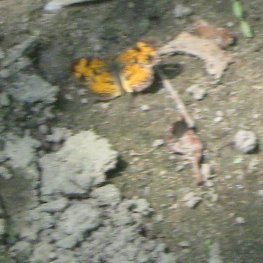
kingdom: Animalia
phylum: Arthropoda
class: Insecta
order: Lepidoptera
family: Nymphalidae
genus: Phyciodes
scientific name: Phyciodes tharos
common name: Pearl Crescent
